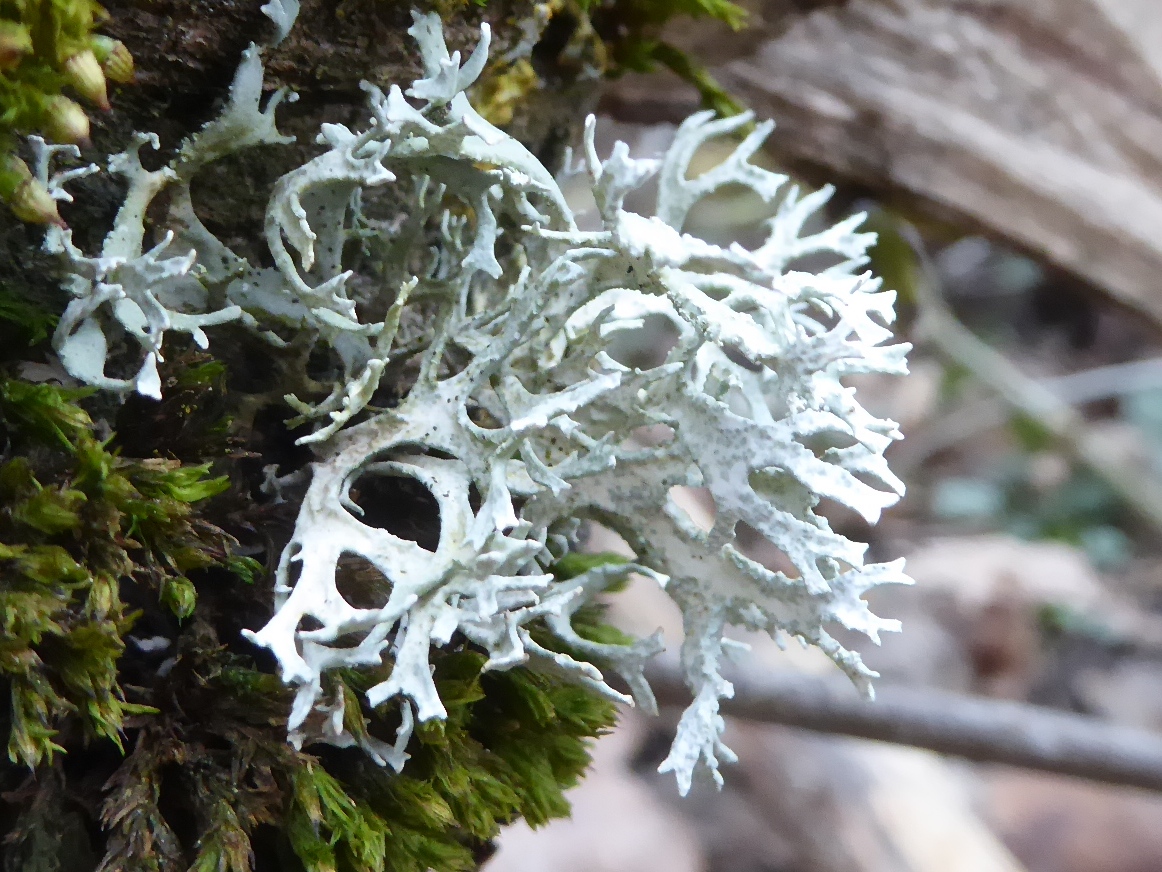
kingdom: Fungi
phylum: Ascomycota
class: Lecanoromycetes
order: Lecanorales
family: Parmeliaceae
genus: Evernia
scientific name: Evernia prunastri
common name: almindelig slåenlav
